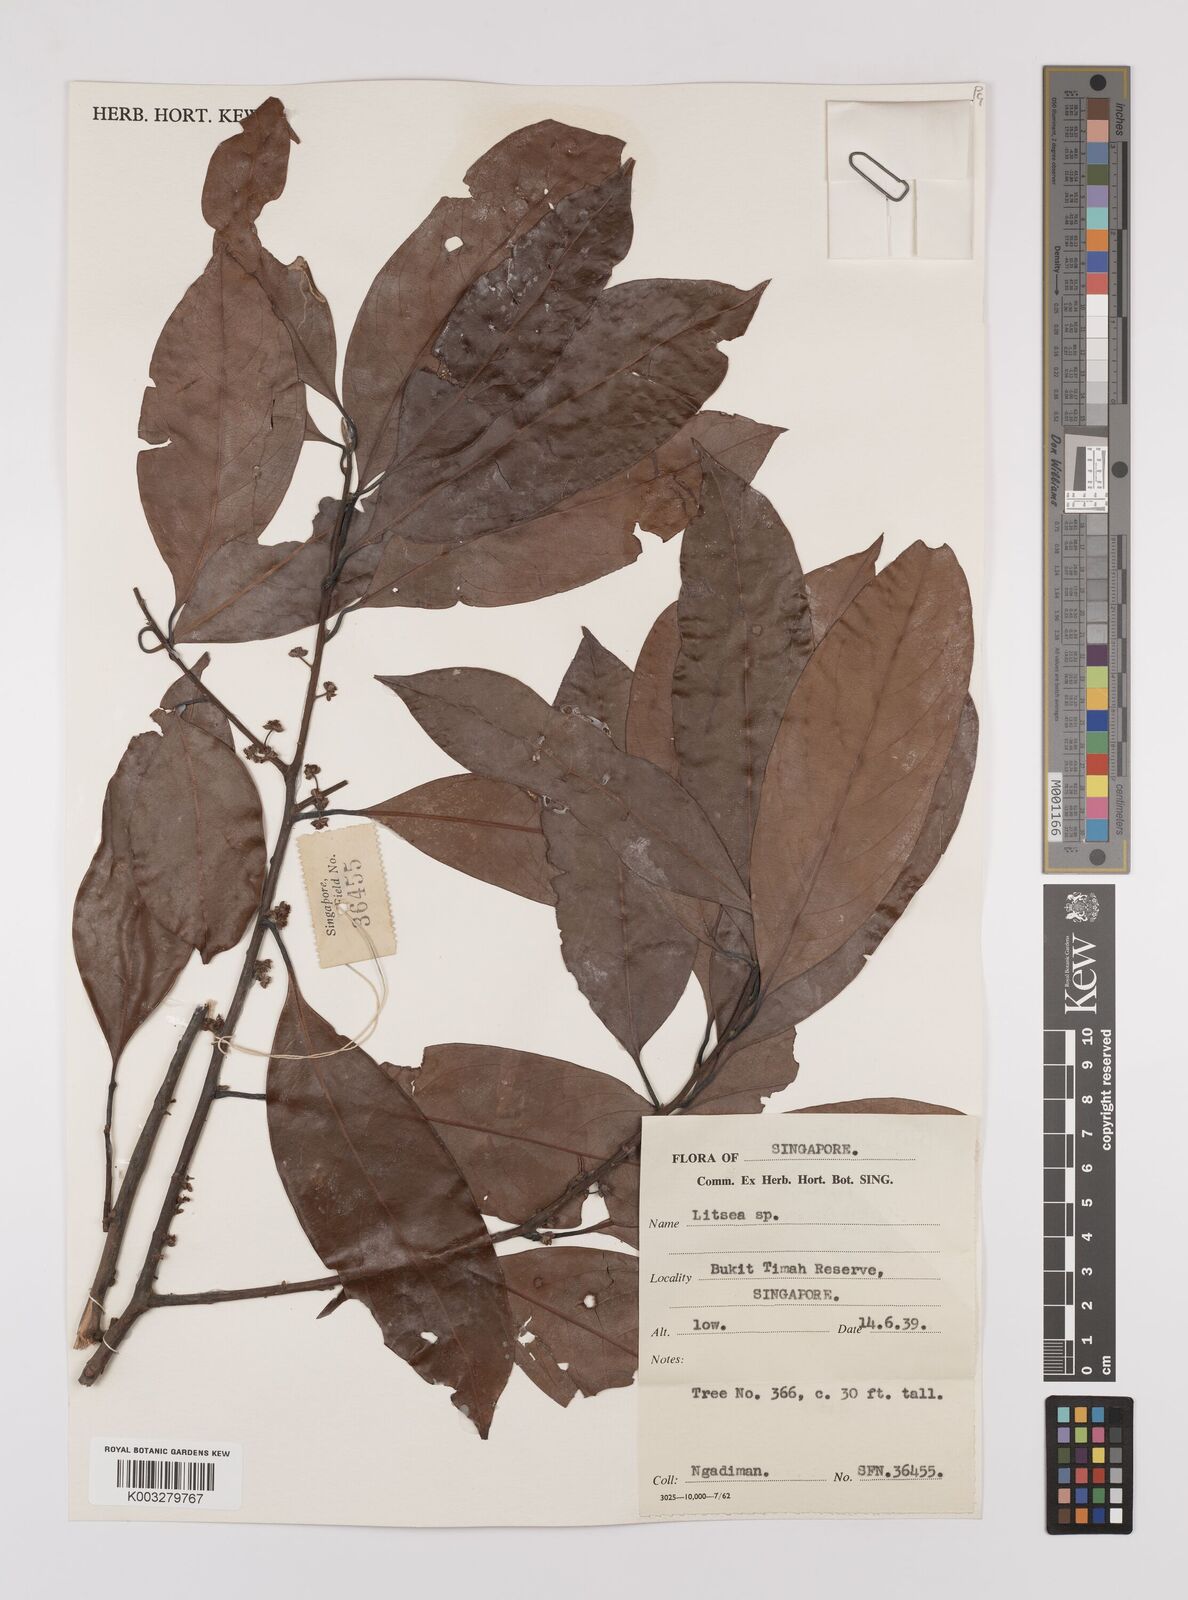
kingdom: Plantae
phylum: Tracheophyta
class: Magnoliopsida
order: Laurales
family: Lauraceae
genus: Litsea
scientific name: Litsea elliptica
